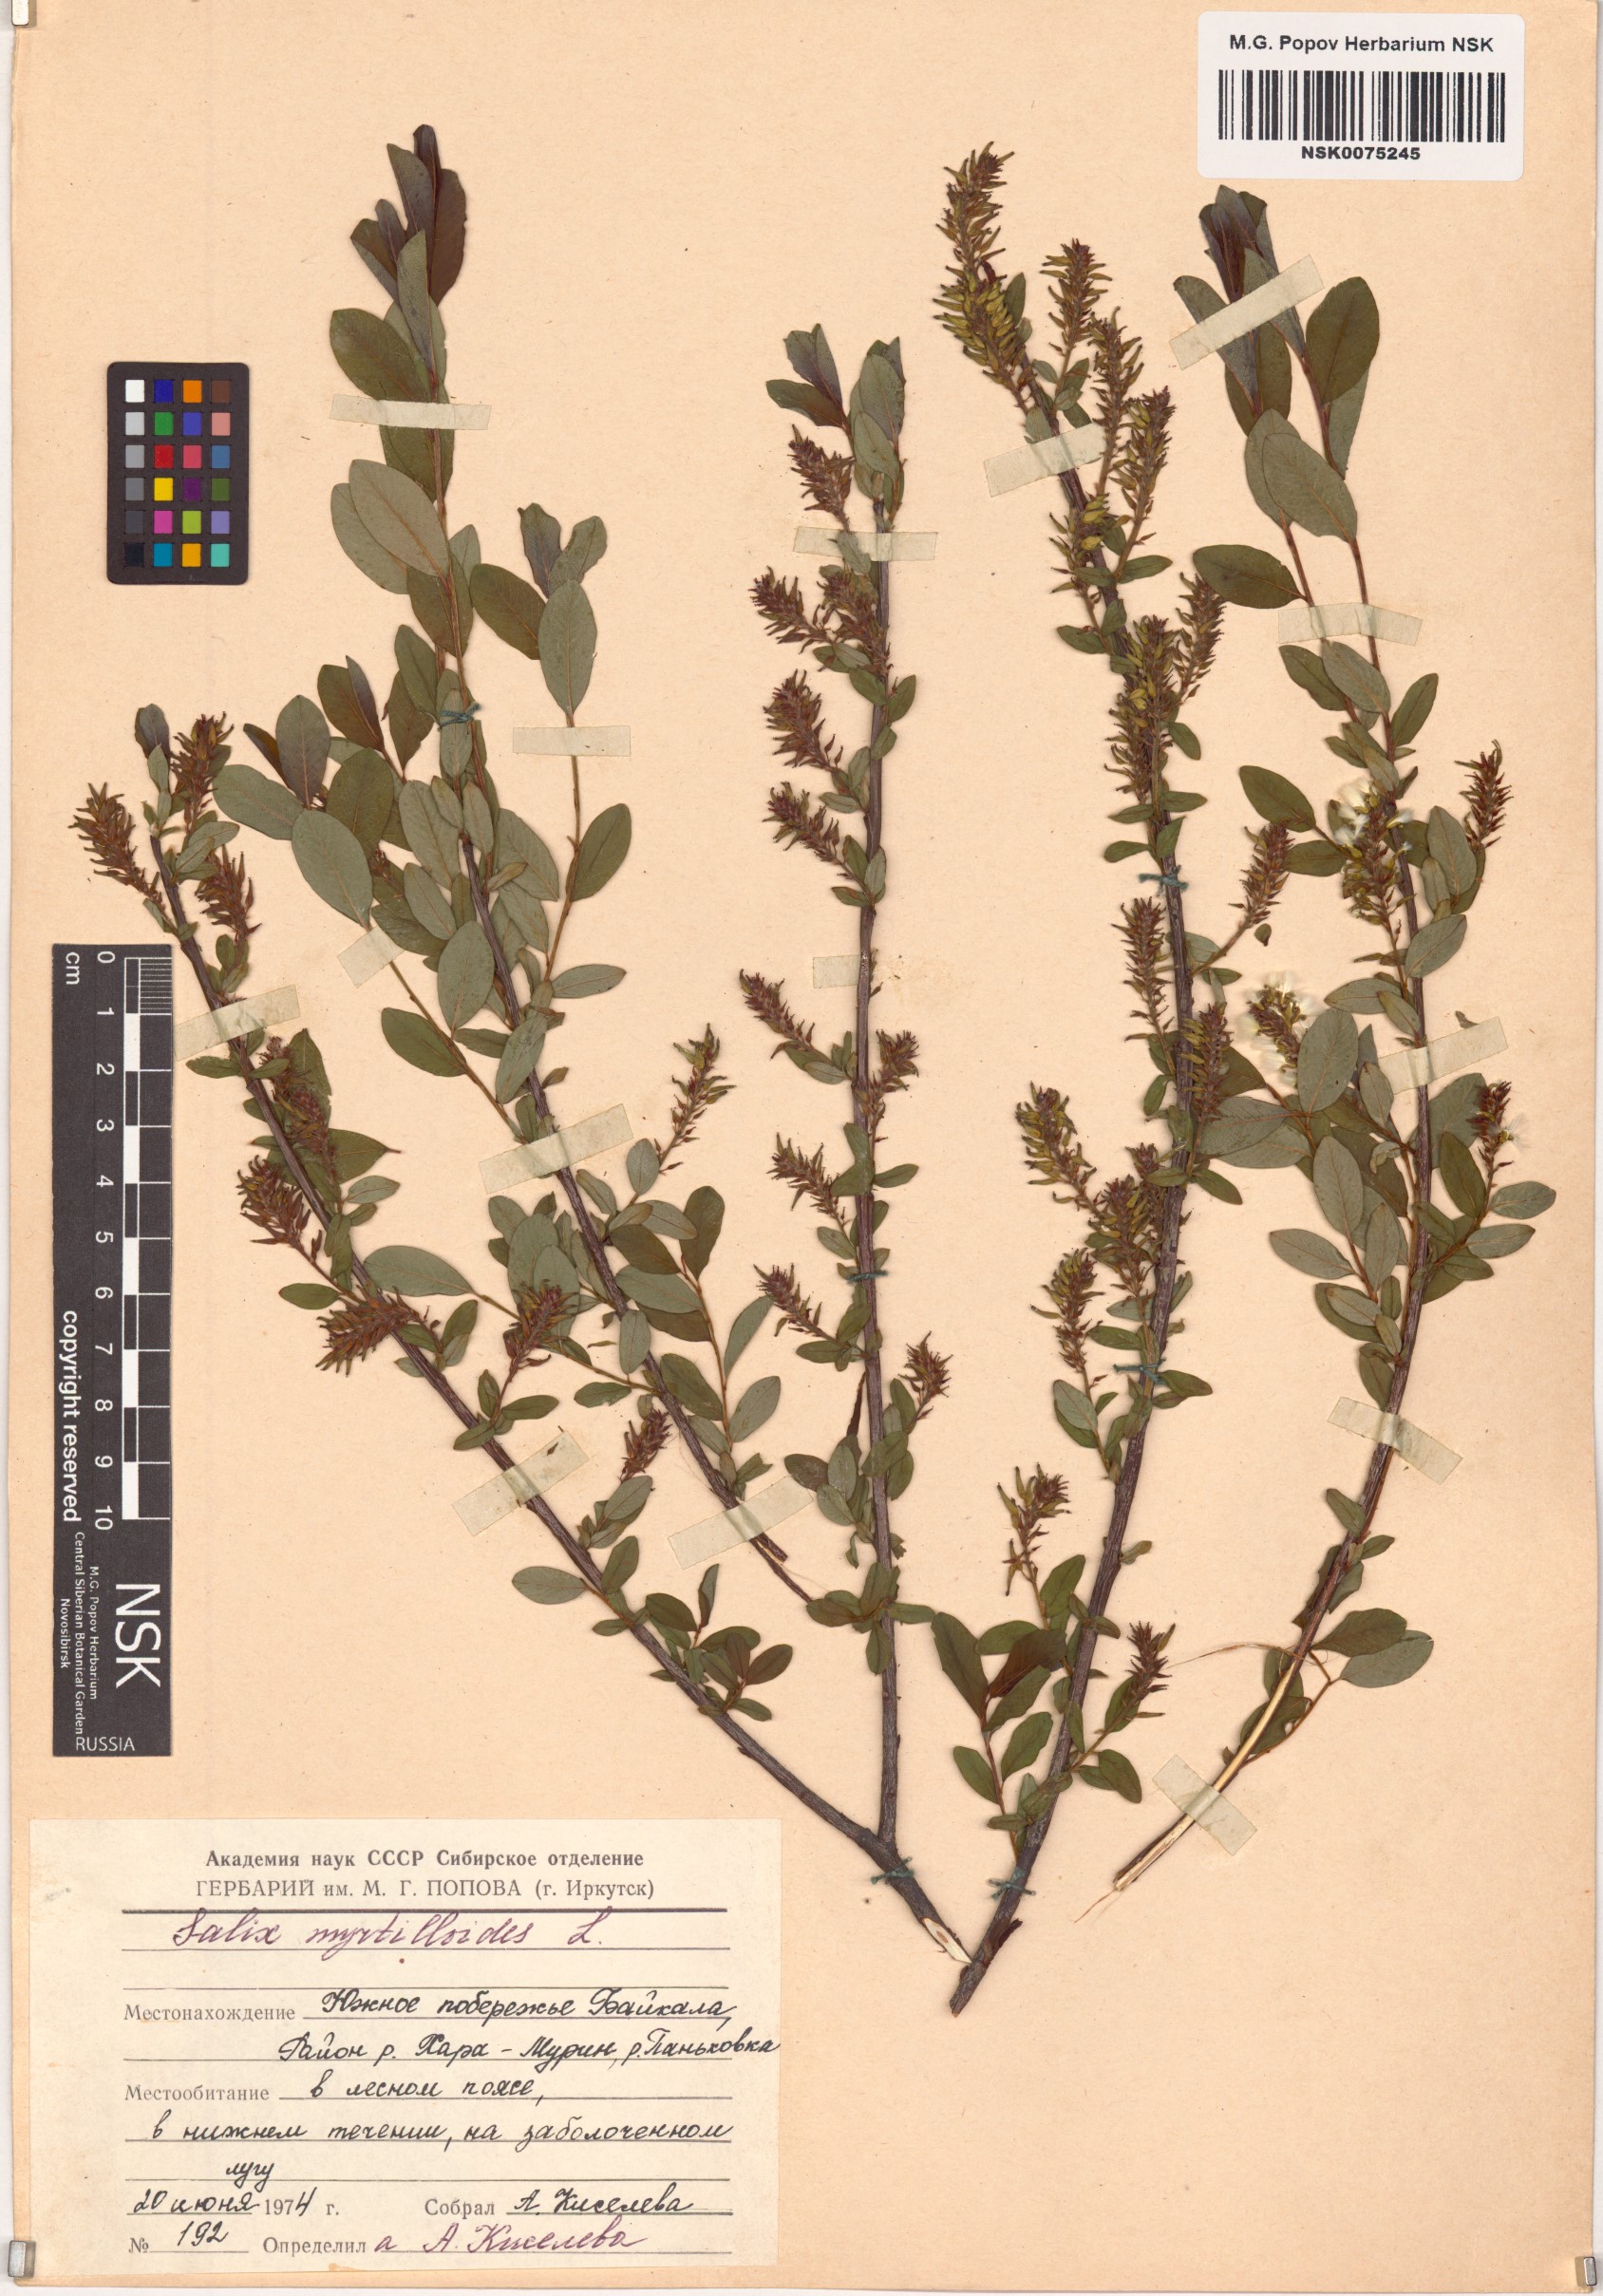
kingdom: Plantae
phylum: Tracheophyta
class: Magnoliopsida
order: Malpighiales
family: Salicaceae
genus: Salix
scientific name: Salix myrtilloides
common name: Myrtle-leaved willow
